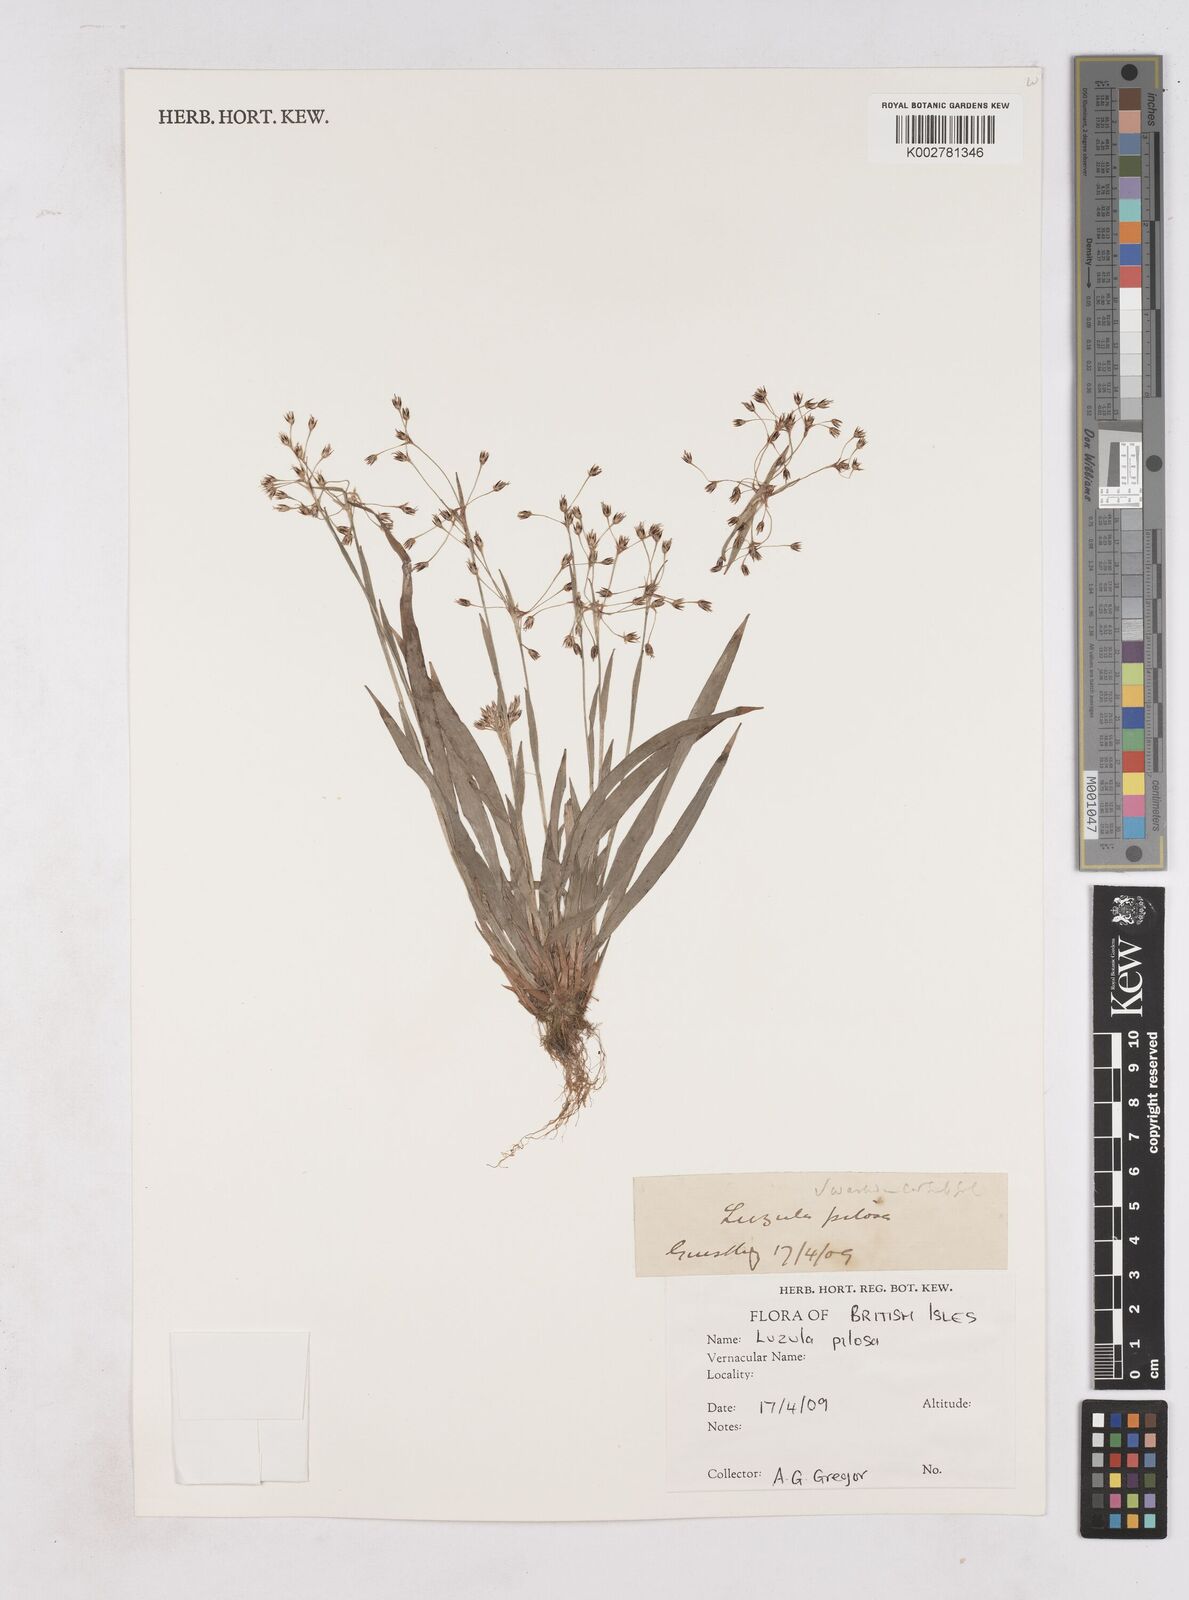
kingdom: Plantae
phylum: Tracheophyta
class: Liliopsida
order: Poales
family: Juncaceae
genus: Luzula
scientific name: Luzula pilosa
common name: Hairy wood-rush
